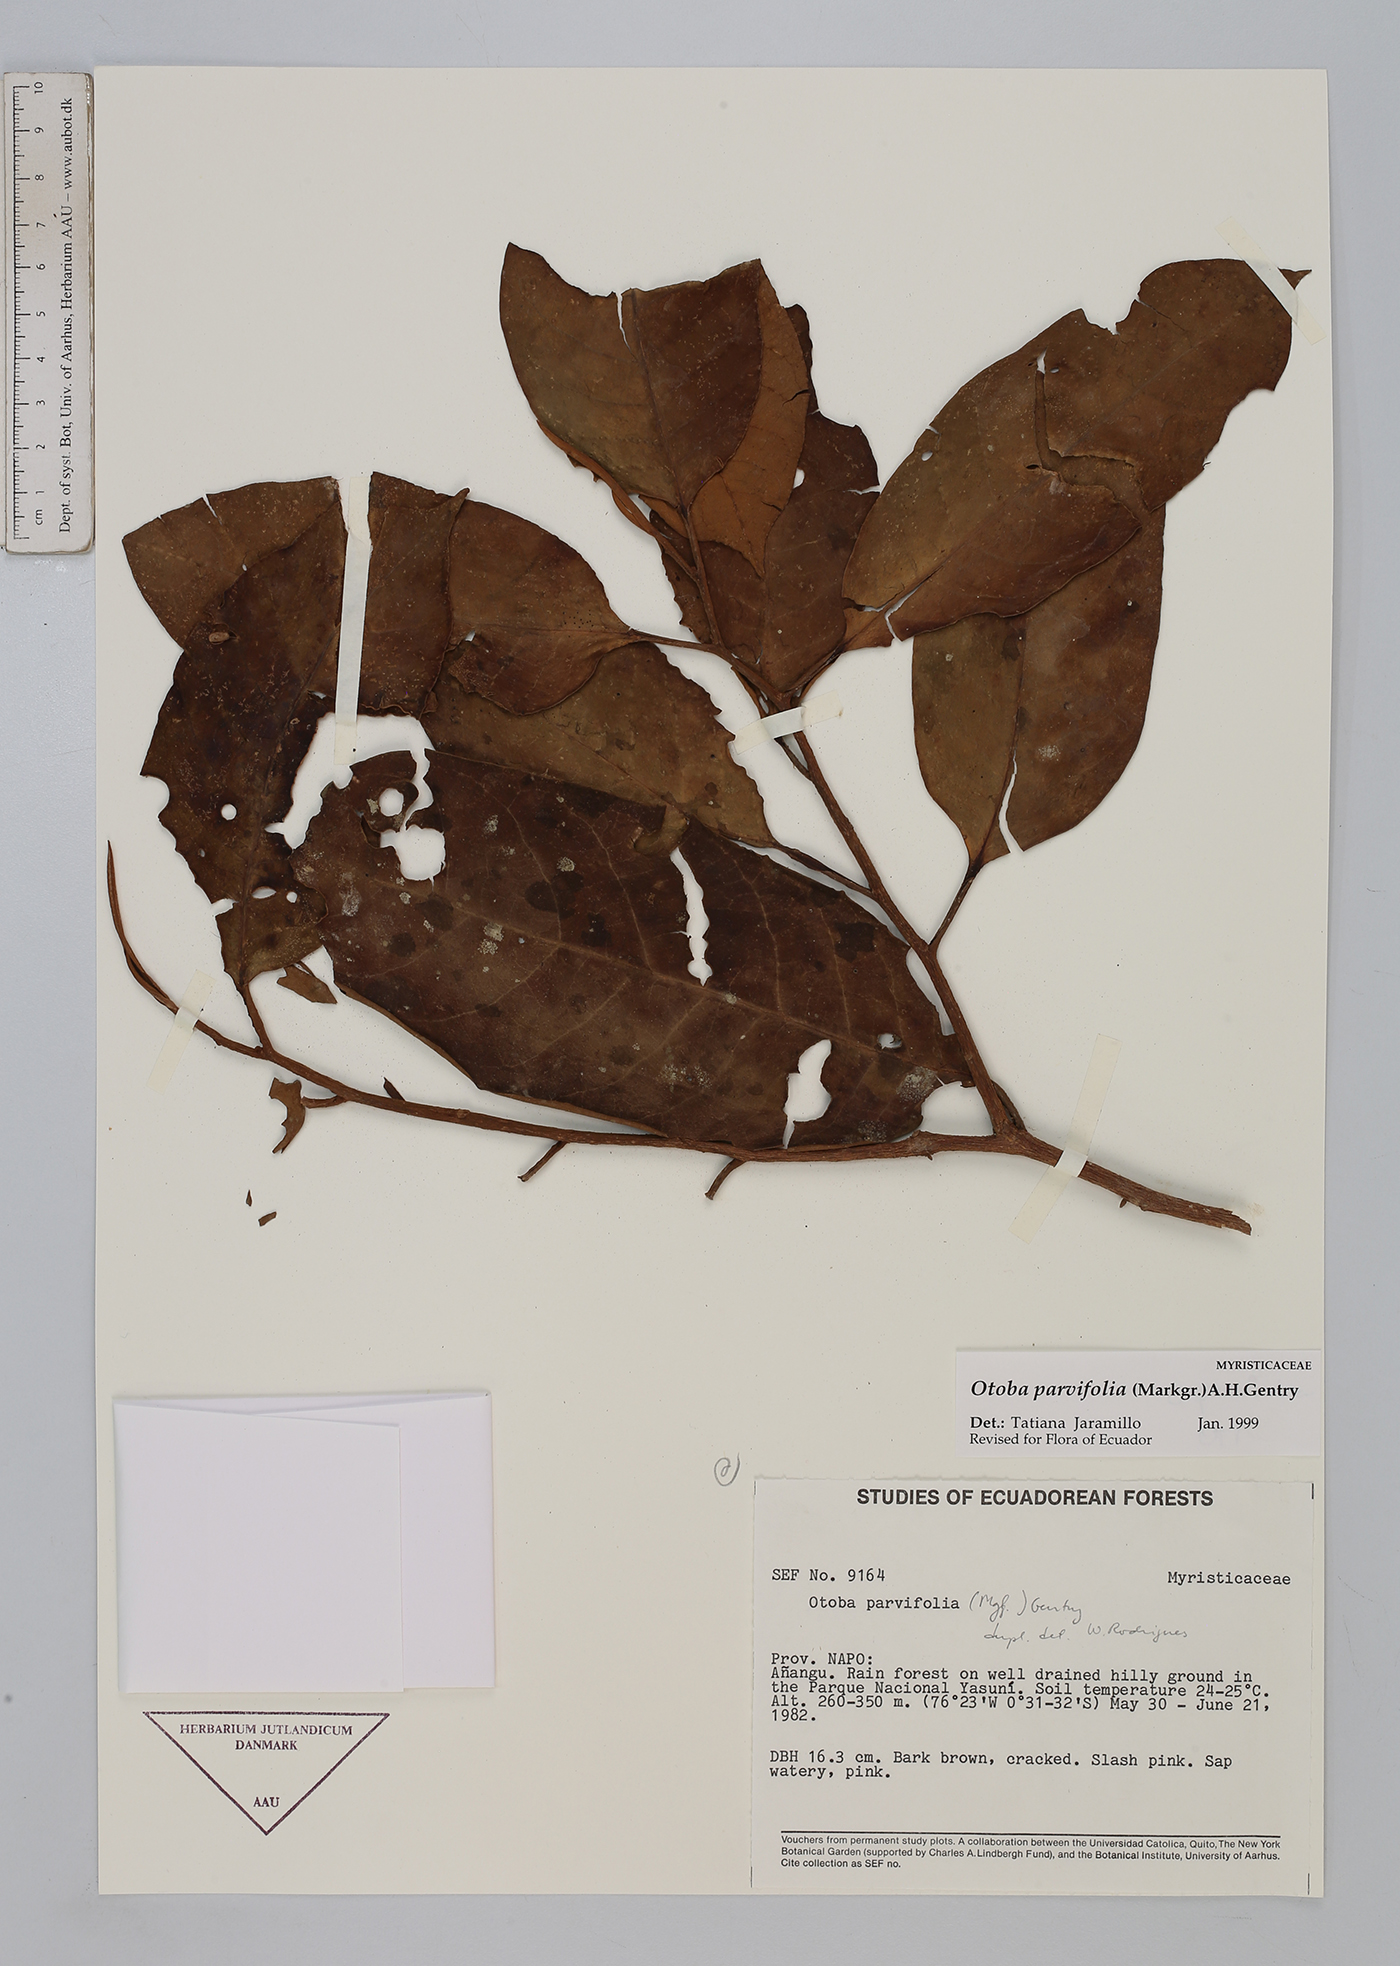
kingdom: Plantae
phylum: Tracheophyta
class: Magnoliopsida
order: Magnoliales
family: Myristicaceae
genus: Otoba
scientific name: Otoba parvifolia
